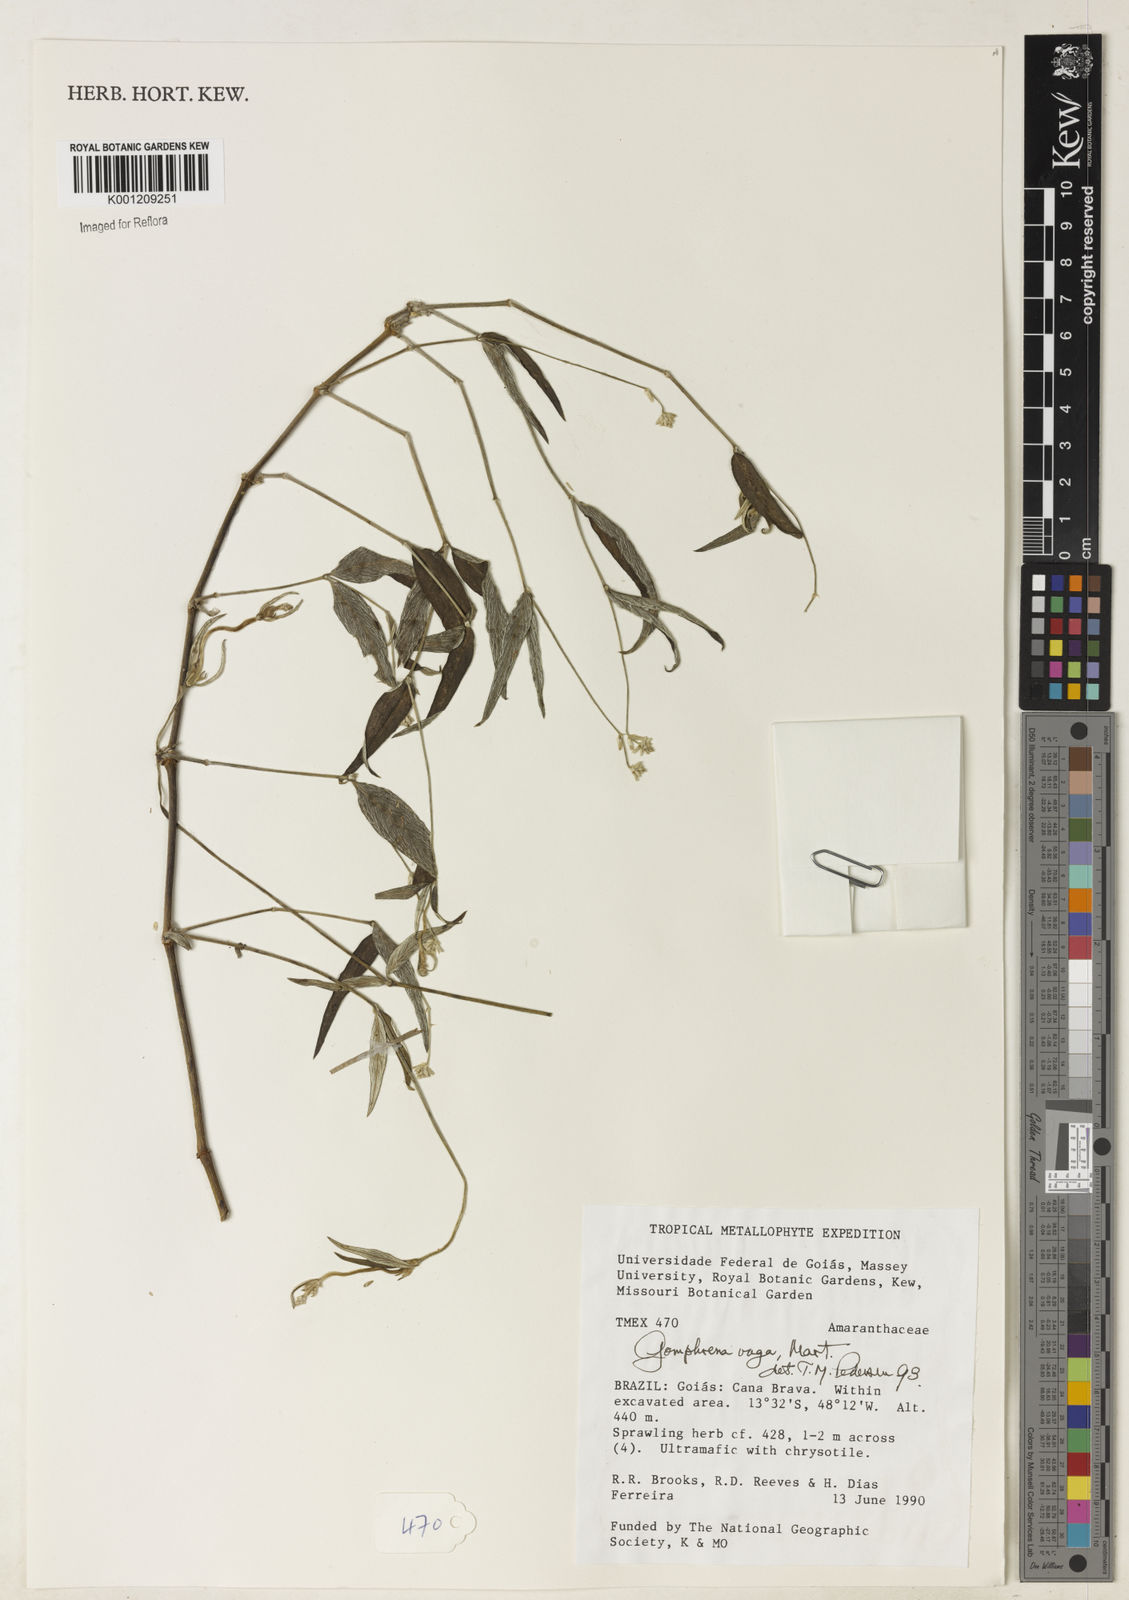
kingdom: Plantae
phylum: Tracheophyta
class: Magnoliopsida
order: Caryophyllales
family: Amaranthaceae
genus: Gomphrena
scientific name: Gomphrena vaga
